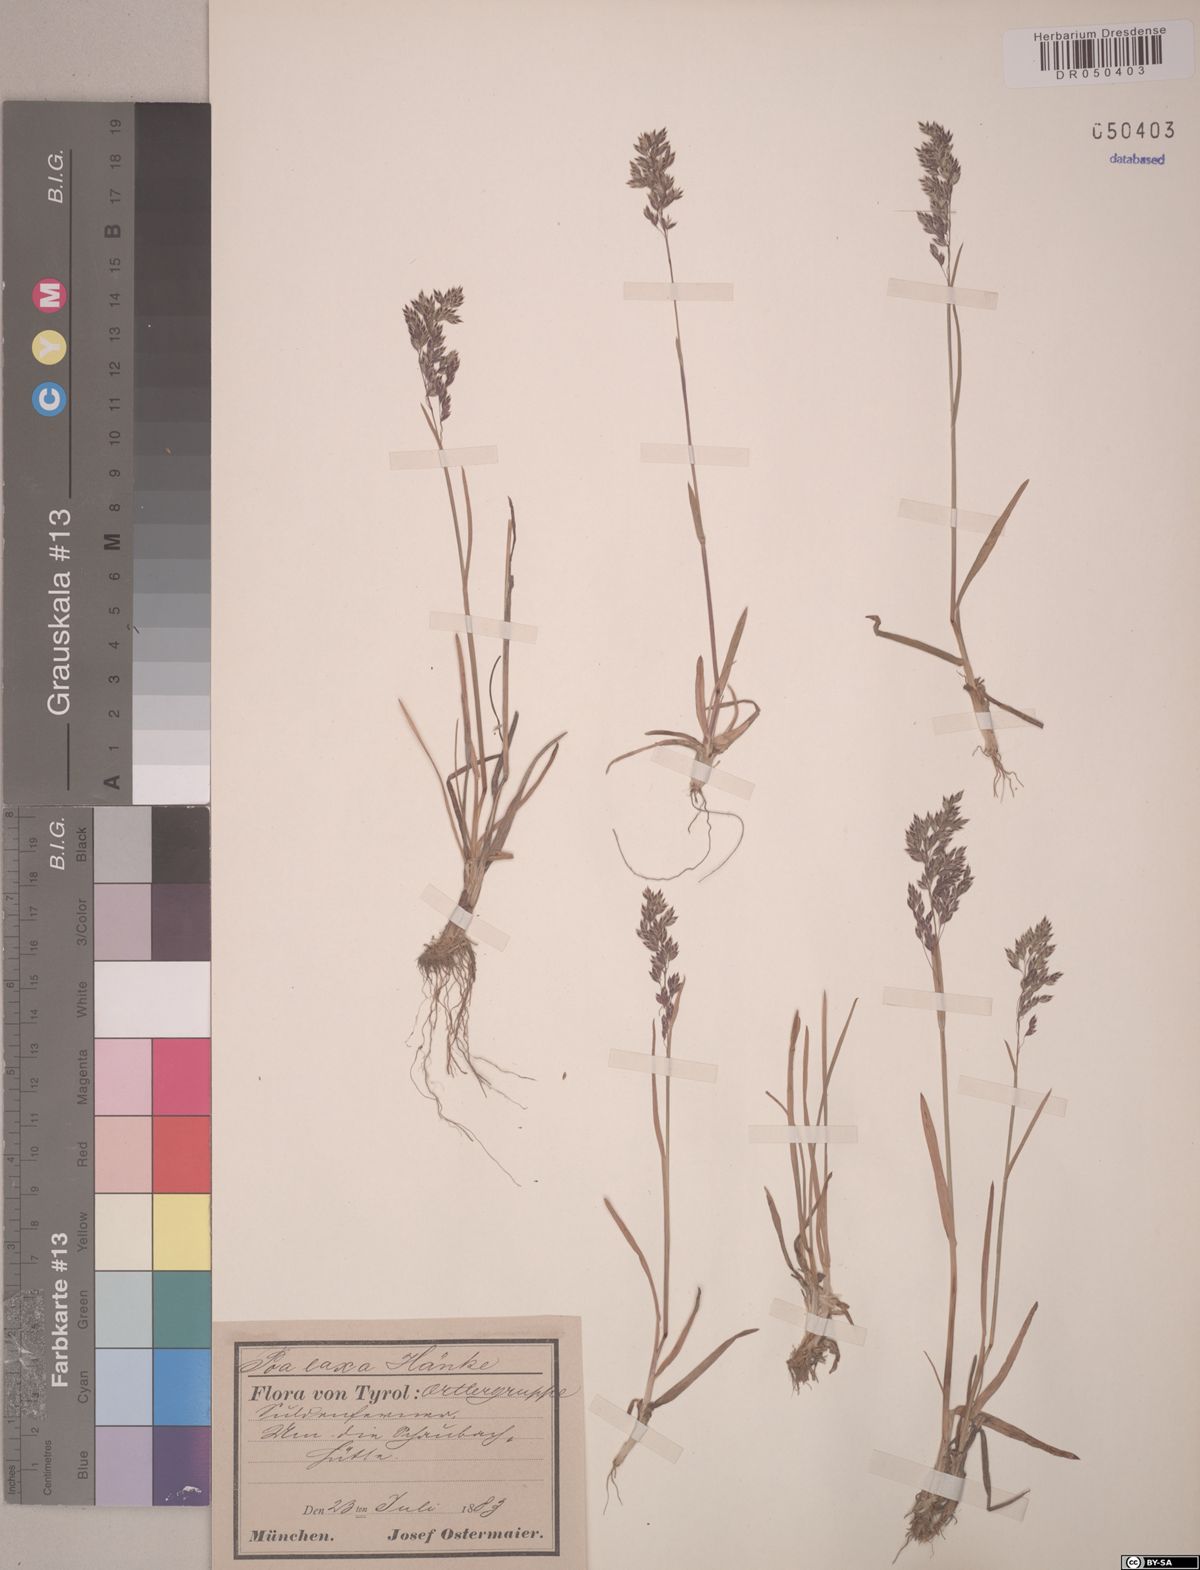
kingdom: Plantae
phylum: Tracheophyta
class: Liliopsida
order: Poales
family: Poaceae
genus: Poa
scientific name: Poa laxa
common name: Lax bluegrass
